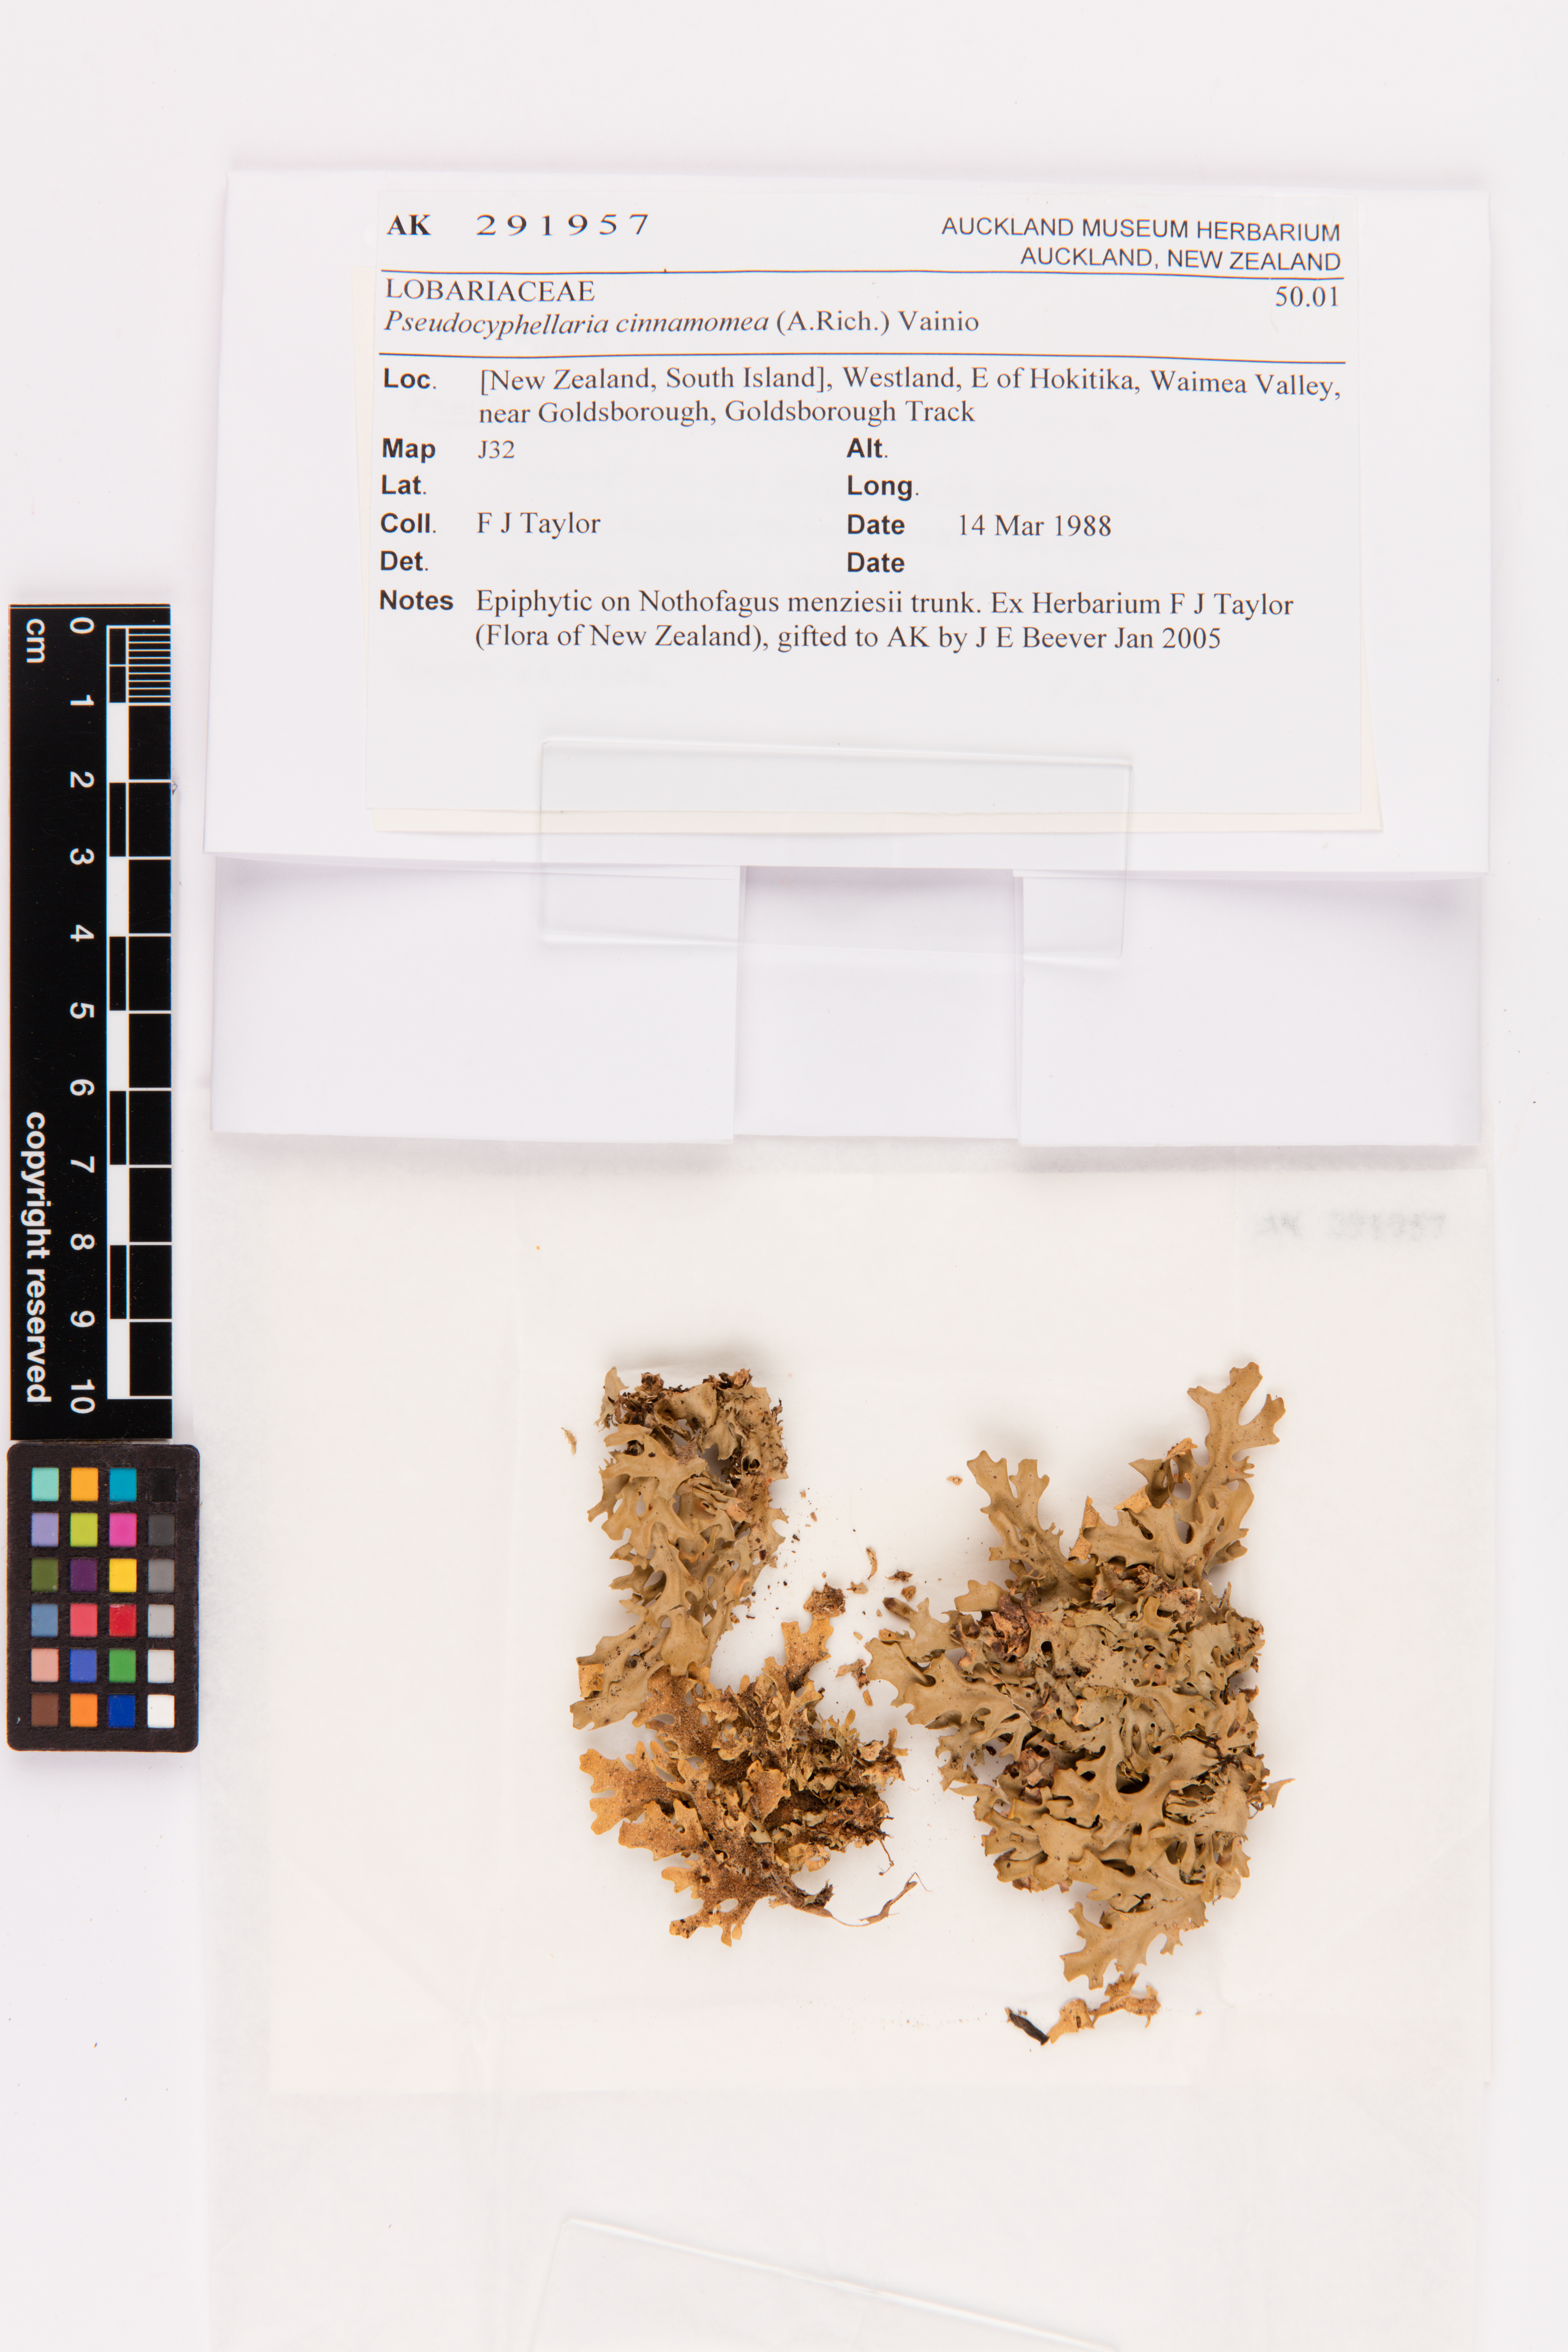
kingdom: Fungi
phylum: Ascomycota
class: Lecanoromycetes
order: Peltigerales
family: Lobariaceae
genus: Pseudocyphellaria
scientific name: Pseudocyphellaria cinnamomea
